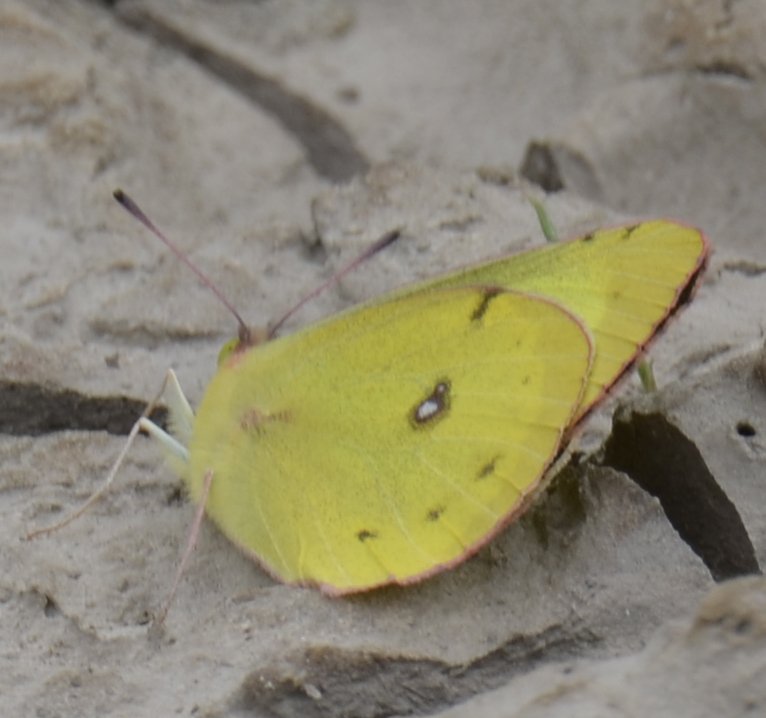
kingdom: Animalia
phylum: Arthropoda
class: Insecta
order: Lepidoptera
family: Pieridae
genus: Colias
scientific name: Colias philodice
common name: Clouded Sulphur
